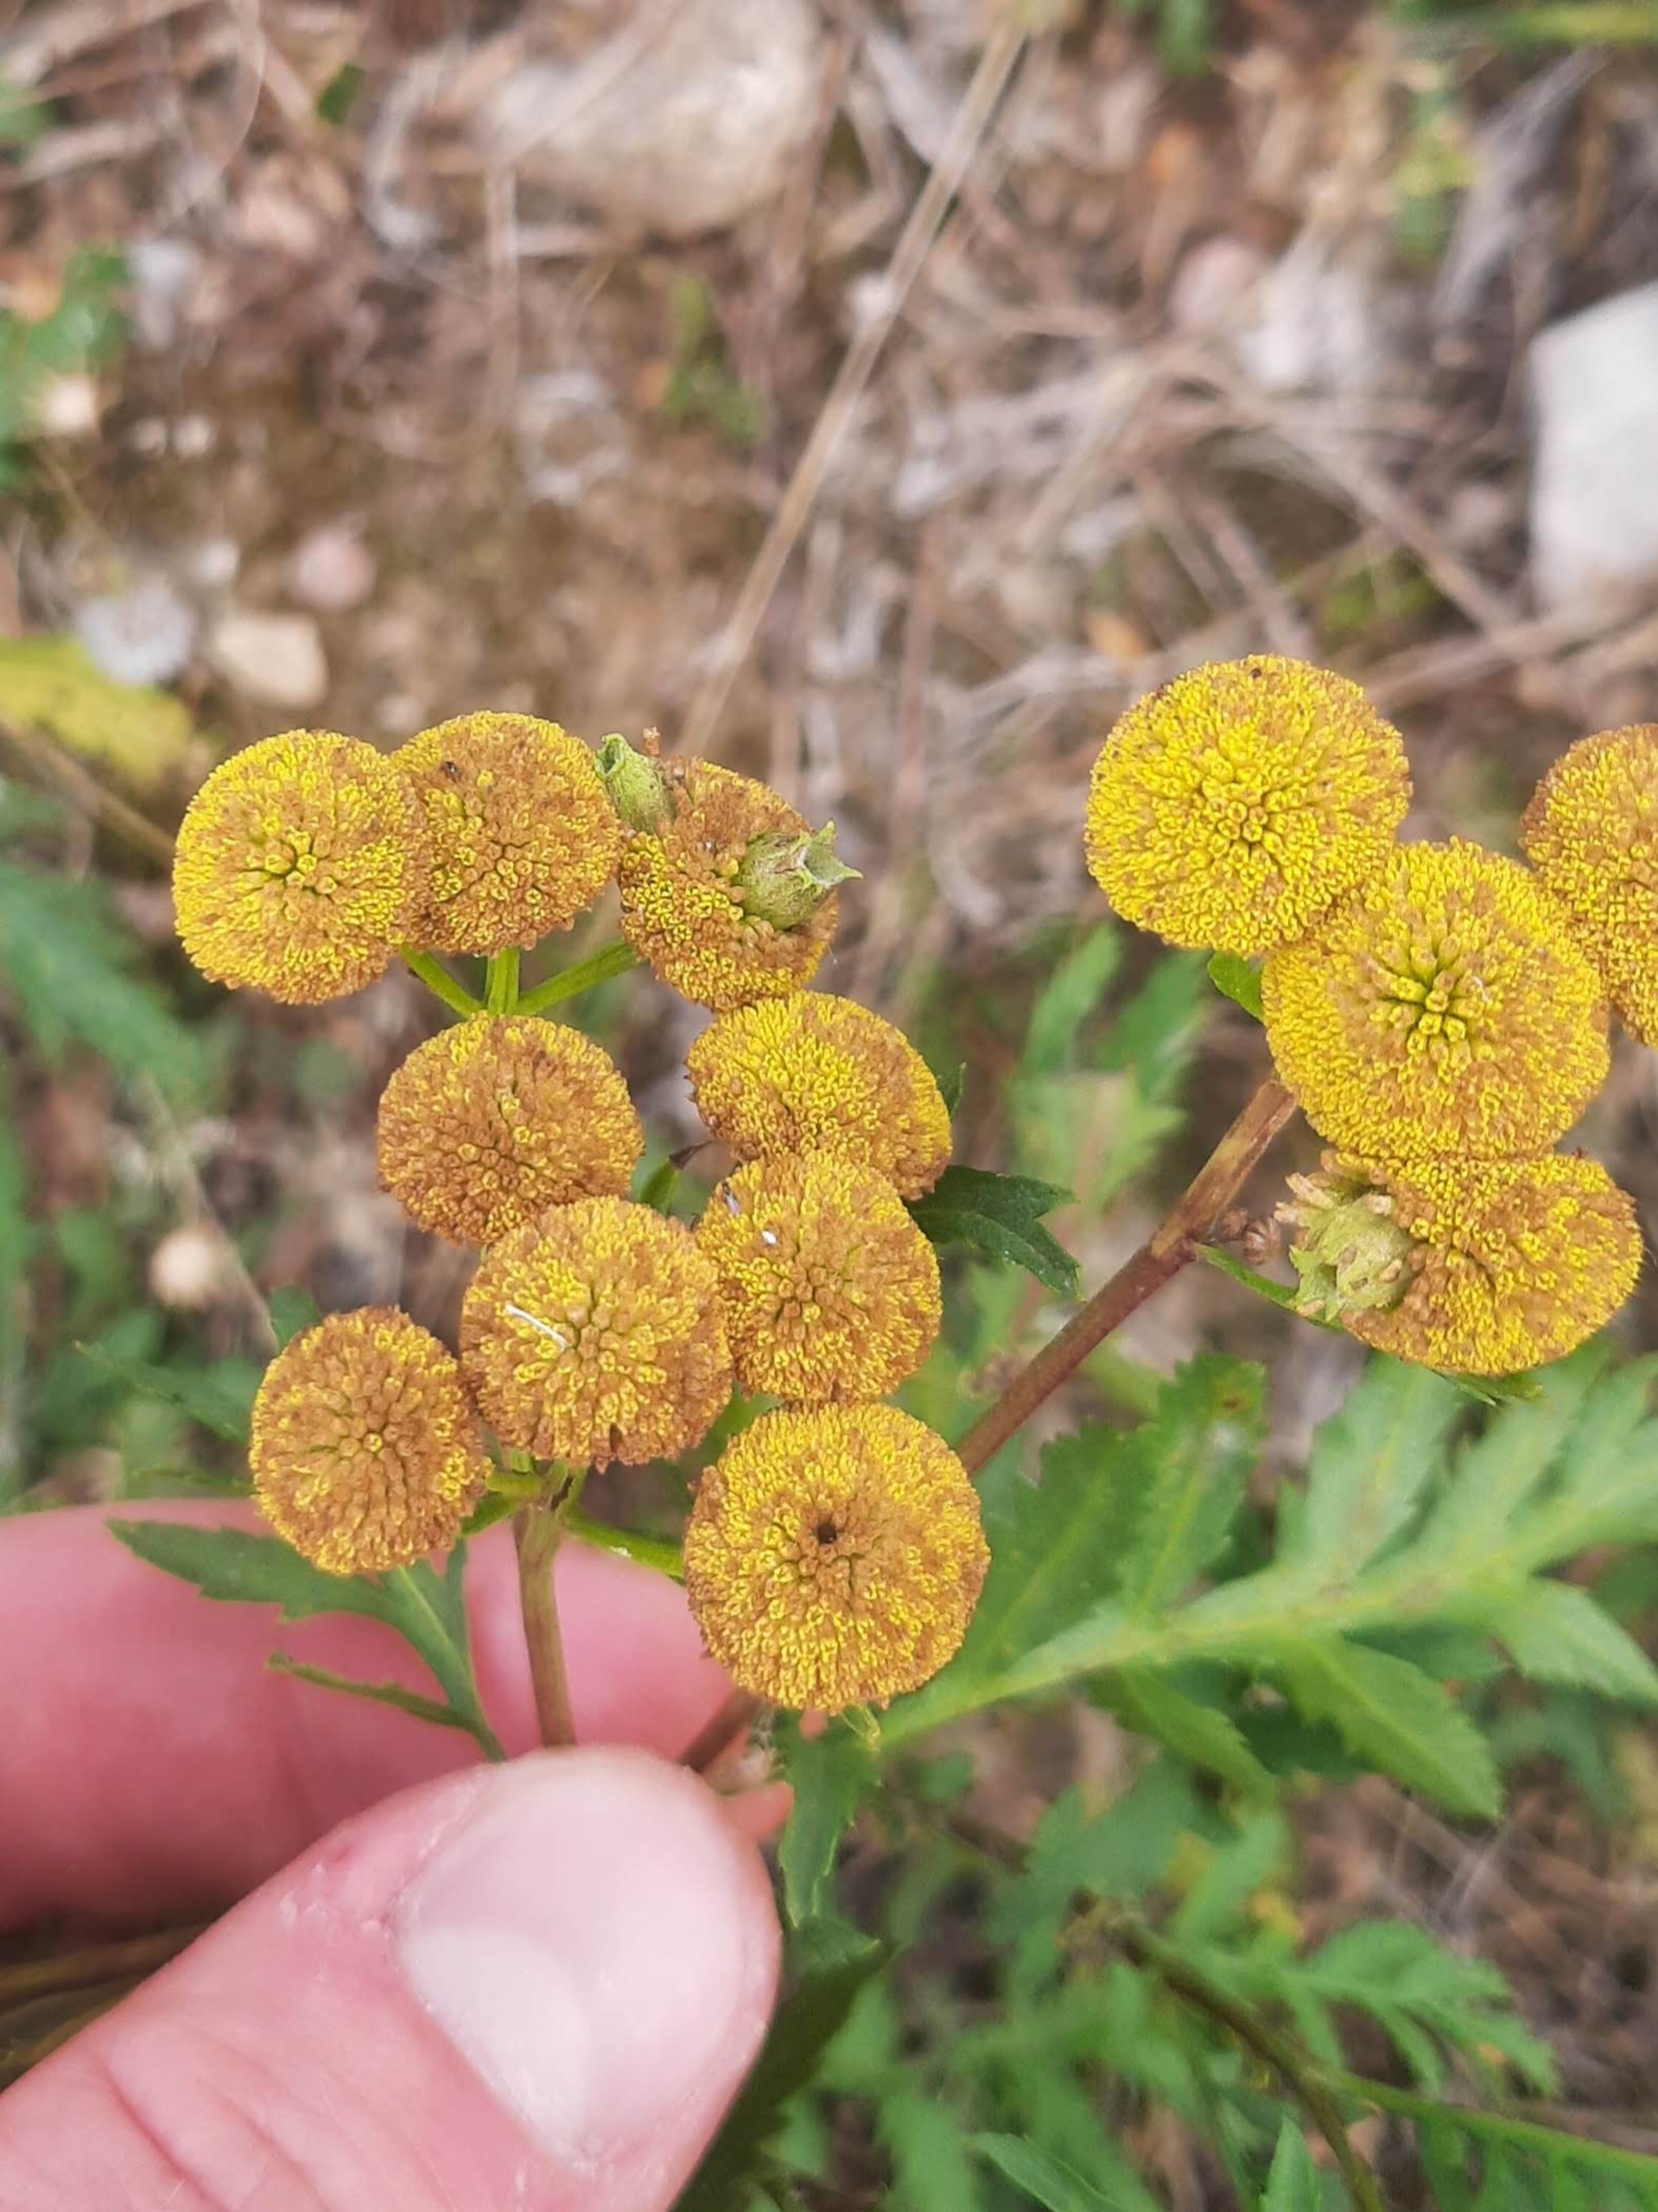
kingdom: Animalia
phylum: Arthropoda
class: Insecta
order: Diptera
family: Cecidomyiidae
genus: Rhopalomyia
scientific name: Rhopalomyia tanaceticolus
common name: Rejnfangalmyg
